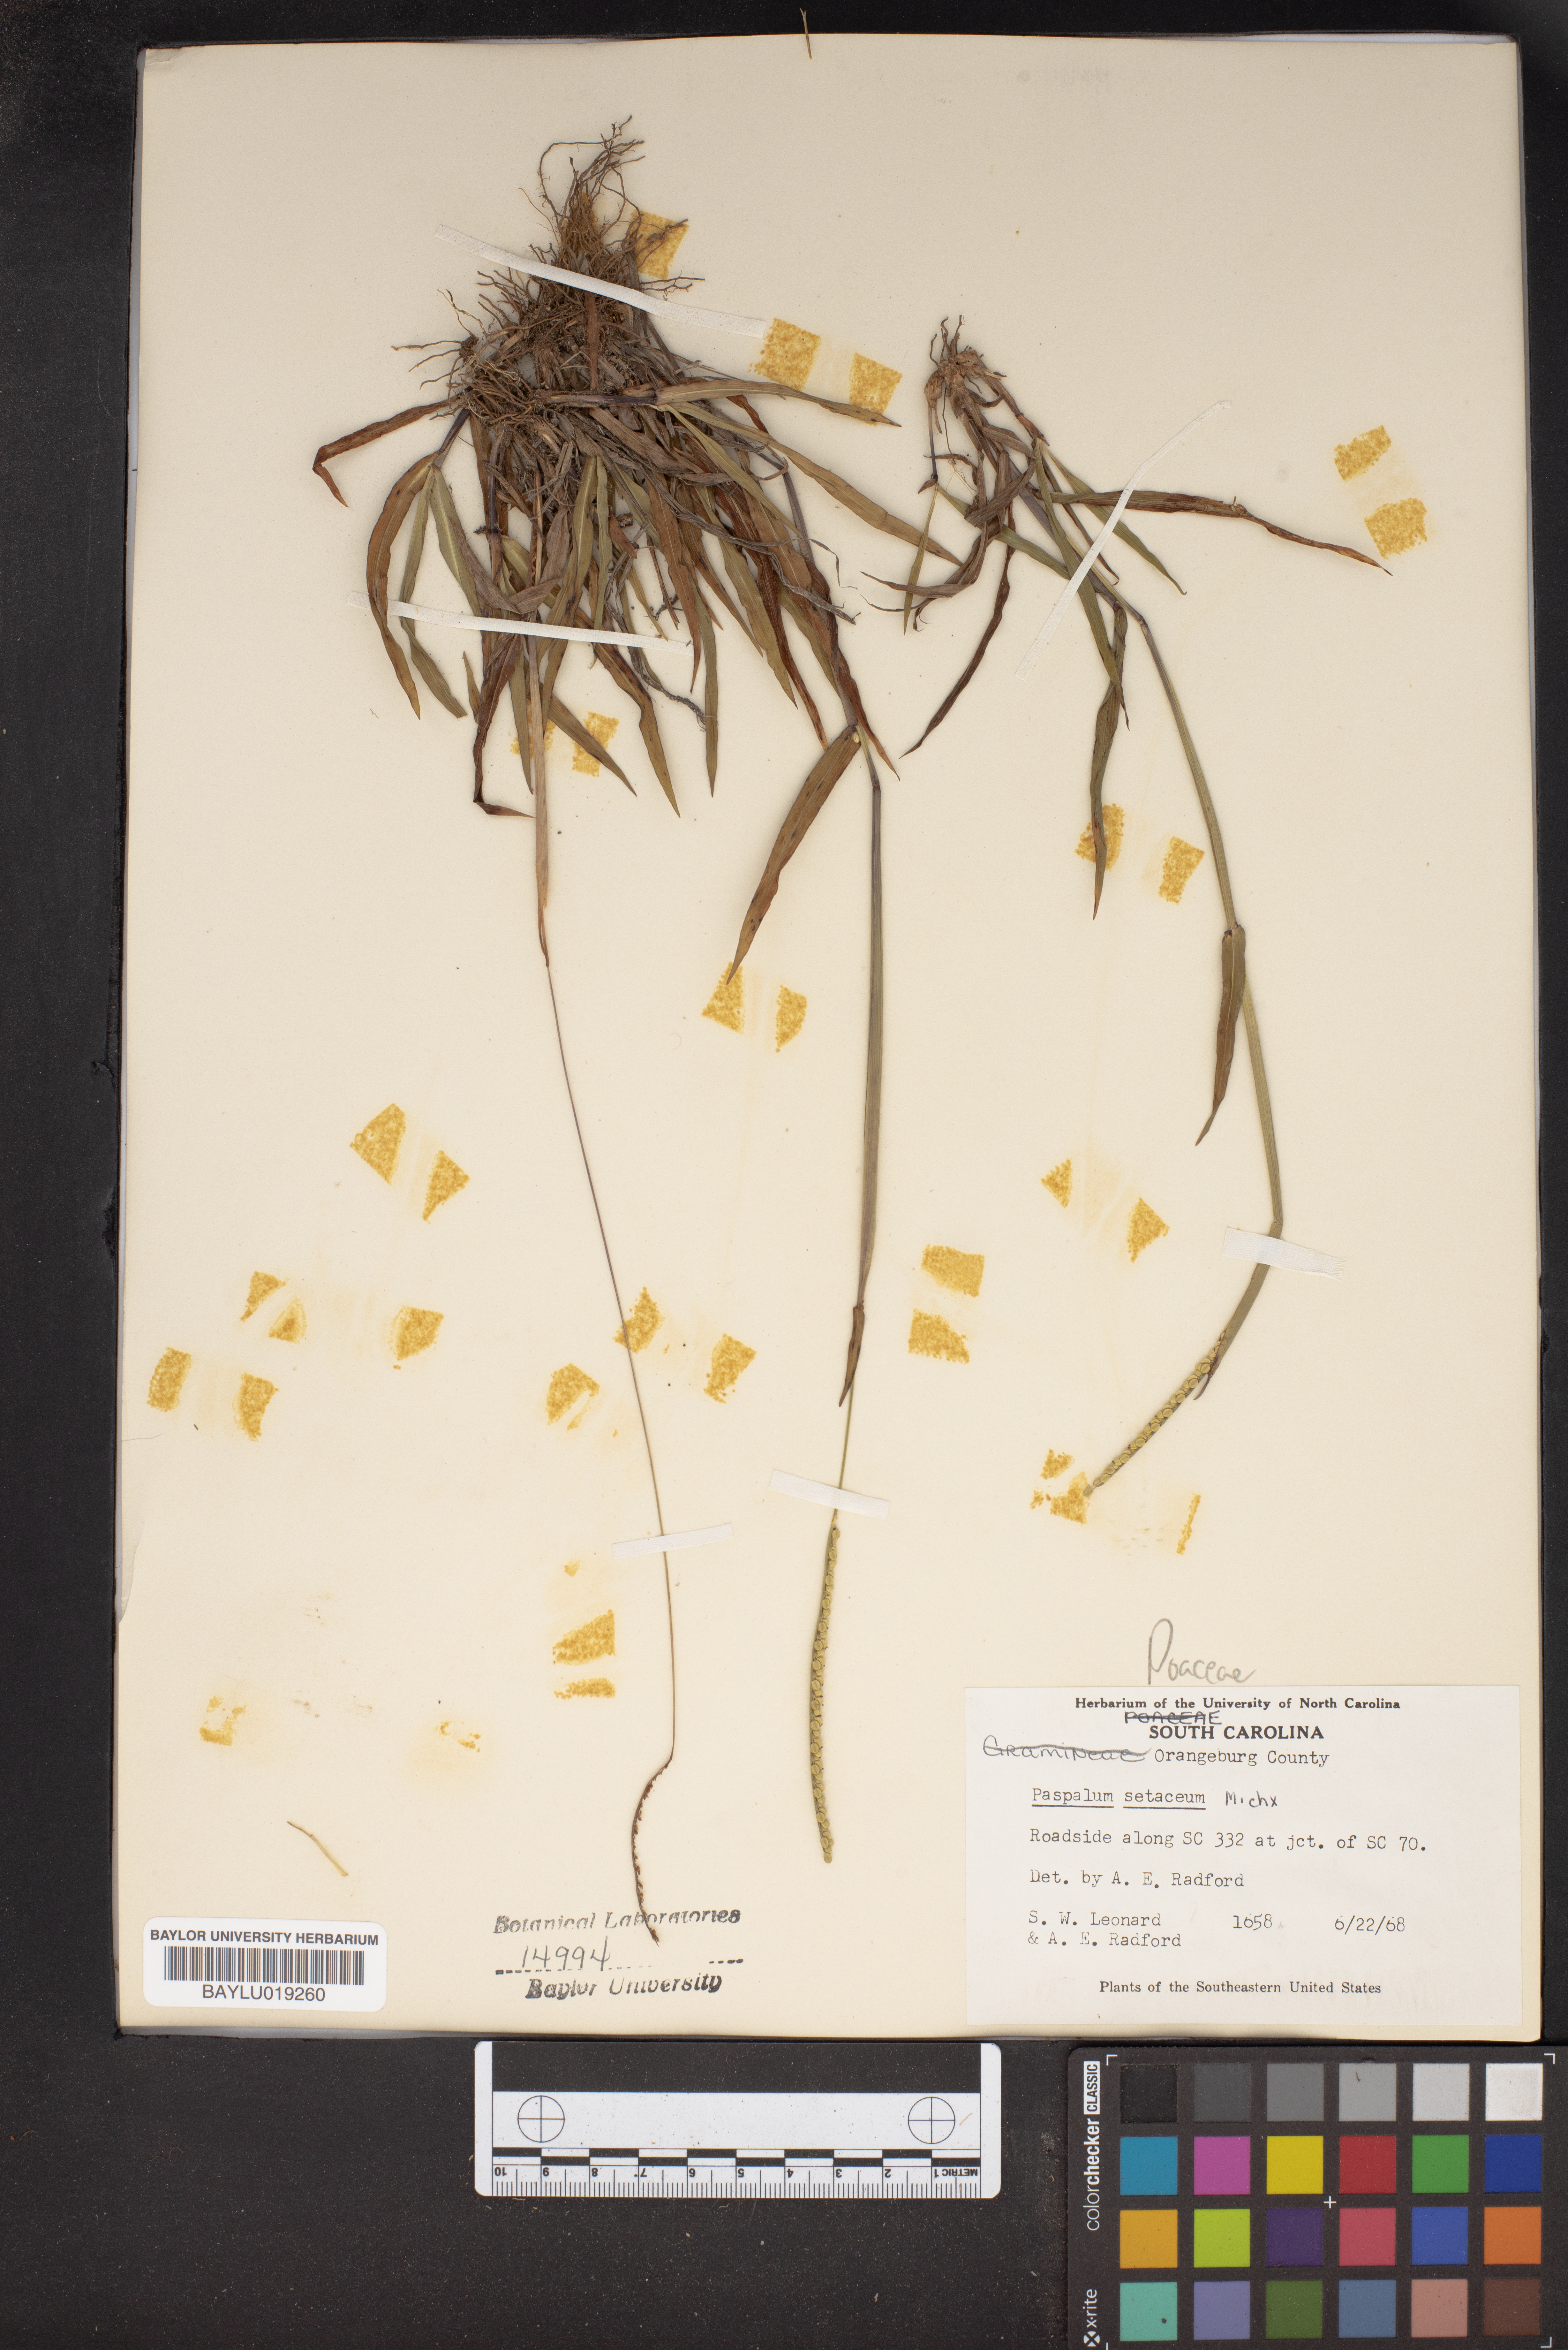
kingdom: Plantae
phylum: Tracheophyta
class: Liliopsida
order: Poales
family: Poaceae
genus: Paspalum
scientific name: Paspalum setaceum
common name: Slender paspalum
